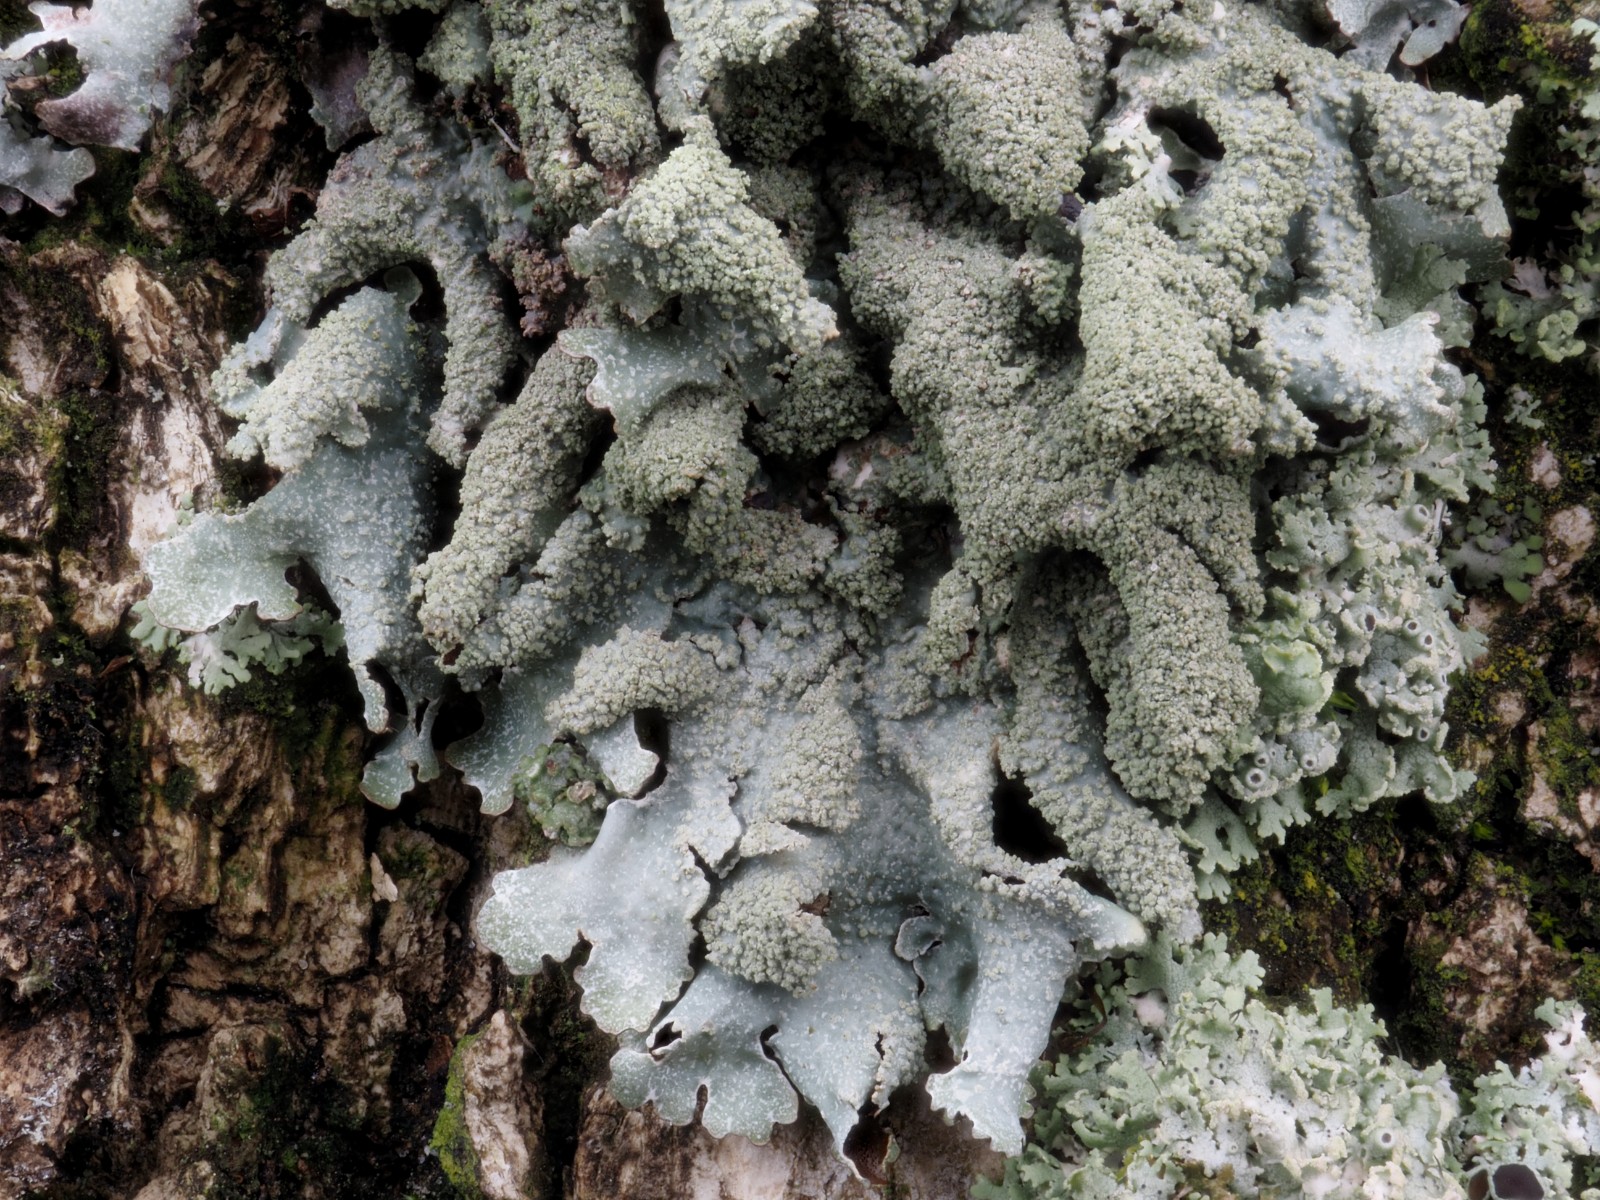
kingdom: Fungi
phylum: Ascomycota
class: Lecanoromycetes
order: Lecanorales
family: Parmeliaceae
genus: Parmelia
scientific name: Parmelia submontana
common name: langlobet skållav
